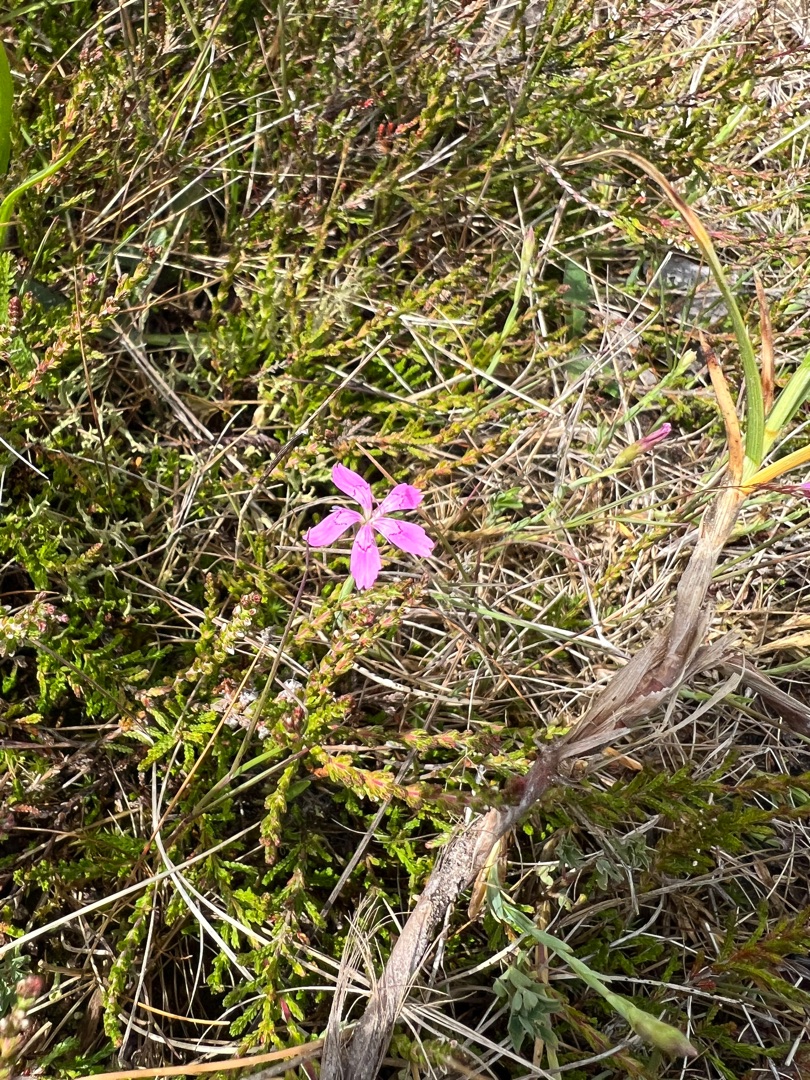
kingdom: Plantae
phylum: Tracheophyta
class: Magnoliopsida
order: Caryophyllales
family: Caryophyllaceae
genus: Dianthus
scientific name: Dianthus deltoides
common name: Bakke-nellike
